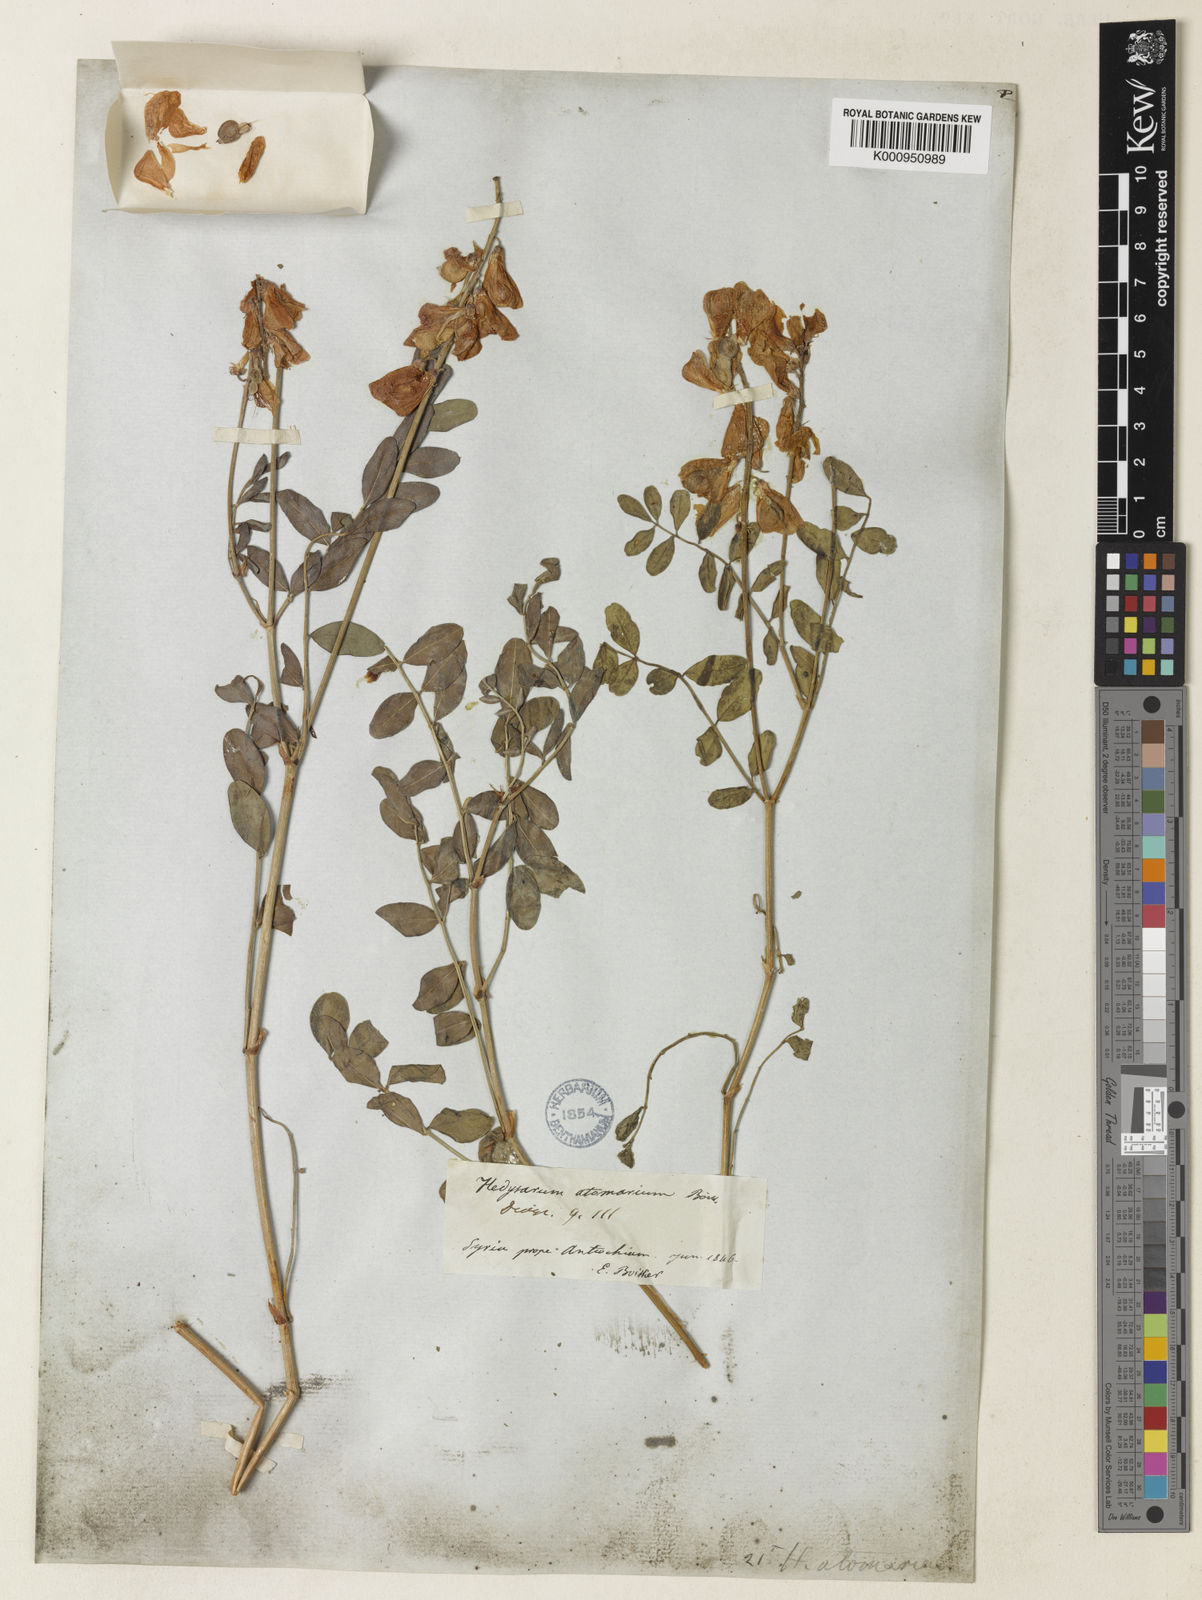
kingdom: Plantae
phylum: Tracheophyta
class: Magnoliopsida
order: Fabales
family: Fabaceae
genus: Hedysarum
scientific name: Hedysarum syriacum
